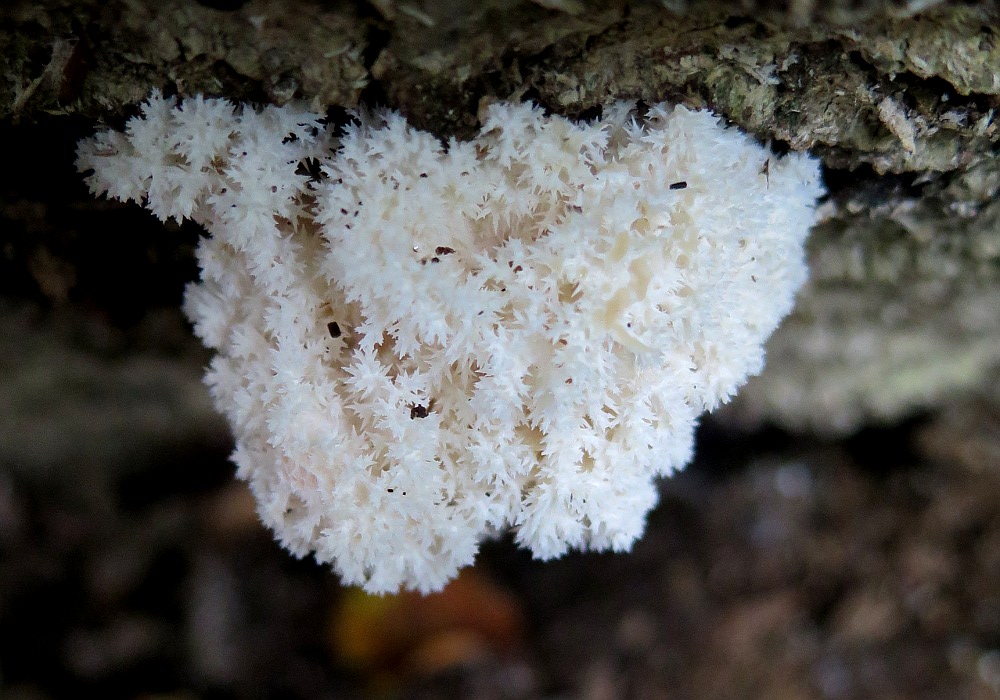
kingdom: Fungi
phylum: Basidiomycota
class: Agaricomycetes
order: Russulales
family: Hericiaceae
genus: Hericium
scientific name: Hericium coralloides
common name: koralpigsvamp
